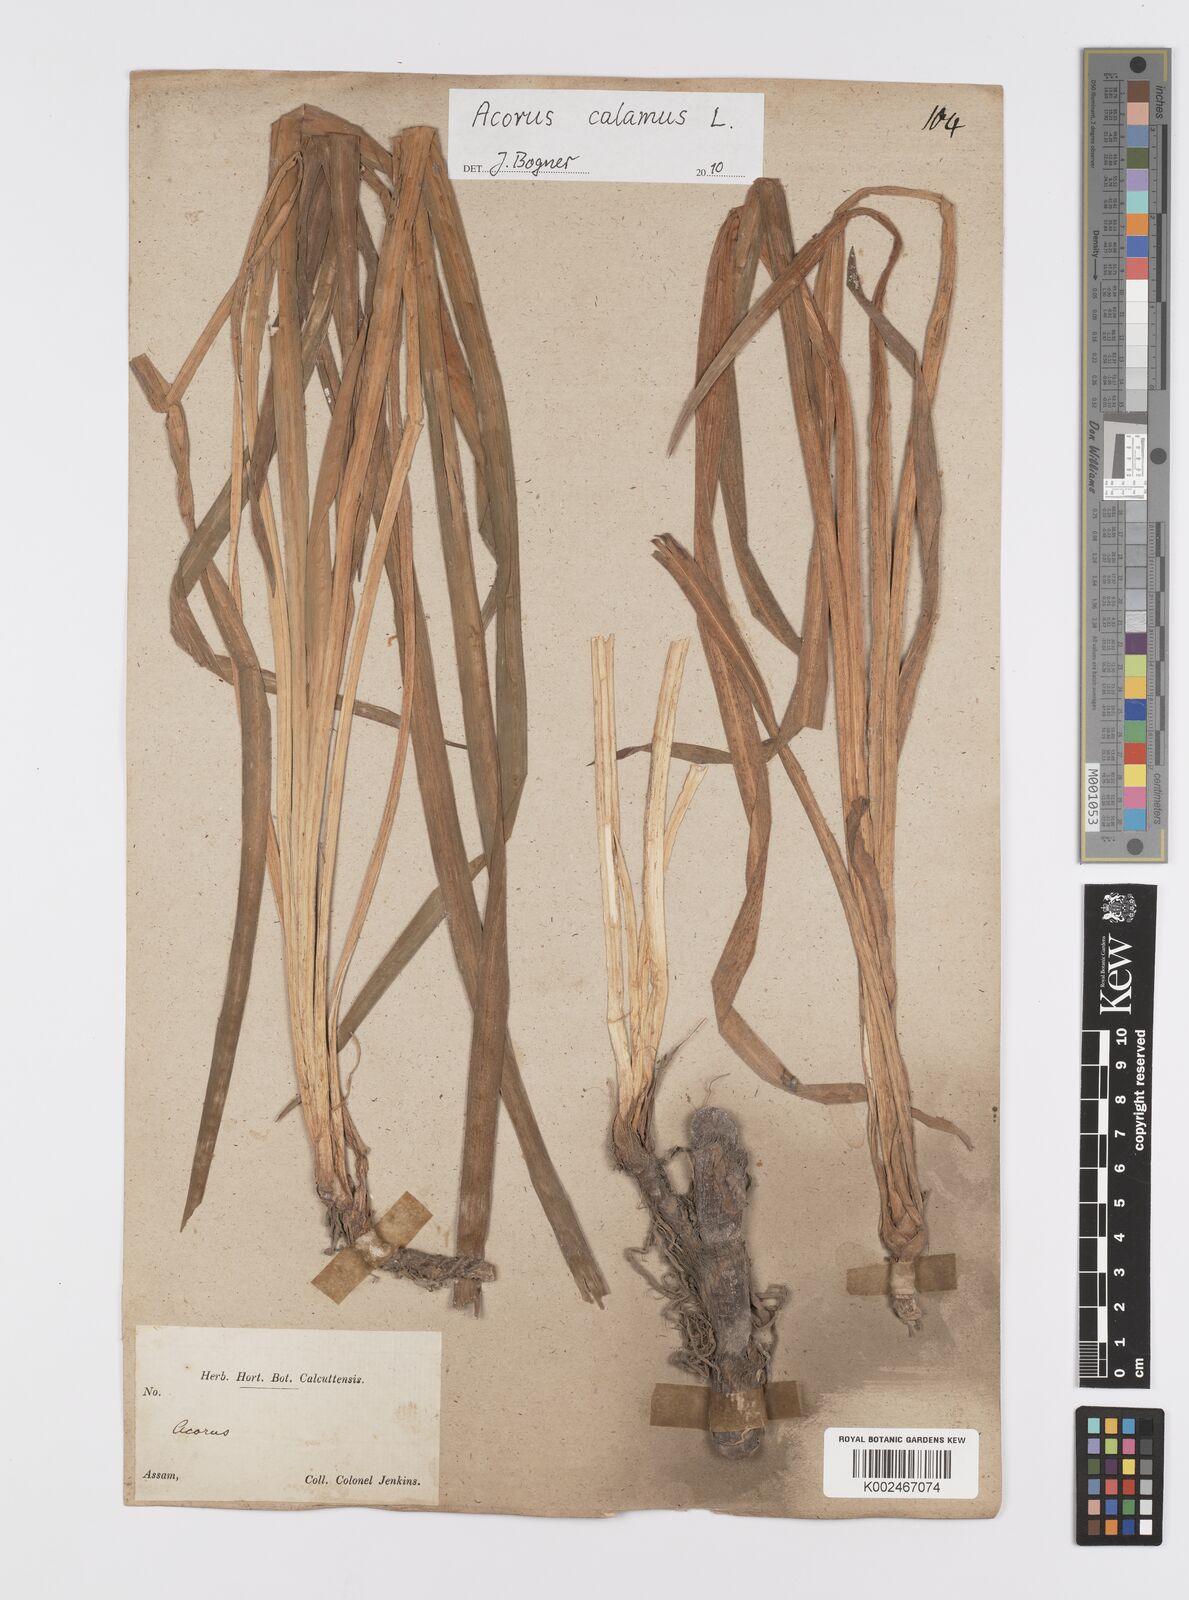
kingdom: Plantae
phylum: Tracheophyta
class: Liliopsida
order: Acorales
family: Acoraceae
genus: Acorus
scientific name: Acorus calamus
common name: Sweet-flag
